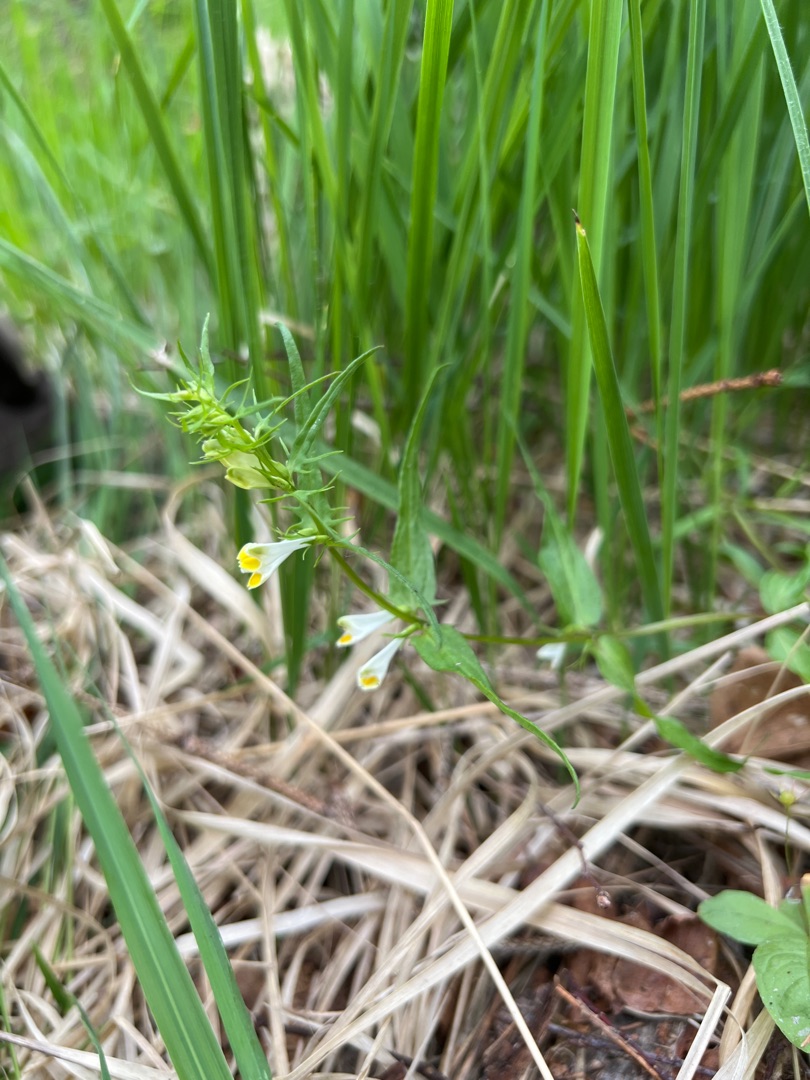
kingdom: Plantae
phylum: Tracheophyta
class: Magnoliopsida
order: Lamiales
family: Orobanchaceae
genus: Melampyrum
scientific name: Melampyrum pratense
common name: Almindelig kohvede
